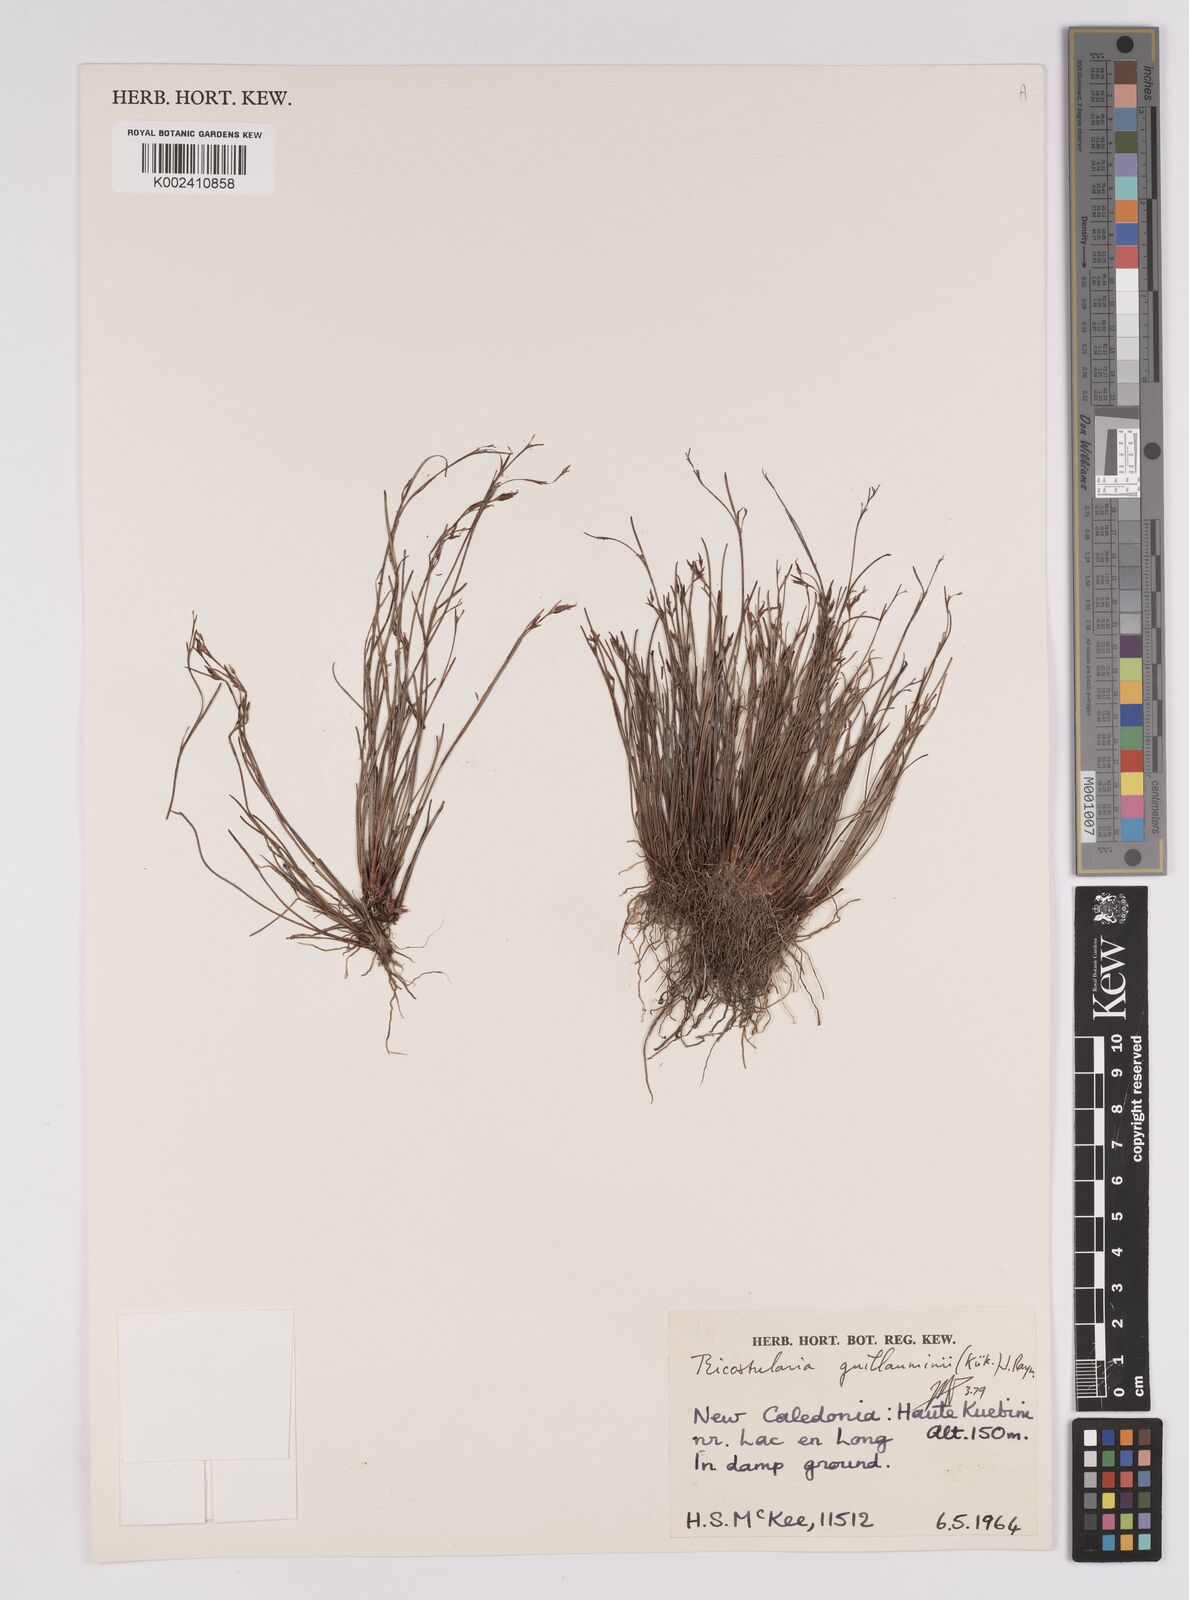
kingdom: Plantae
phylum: Tracheophyta
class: Liliopsida
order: Poales
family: Cyperaceae
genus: Anthelepis
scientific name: Anthelepis guillauminii
